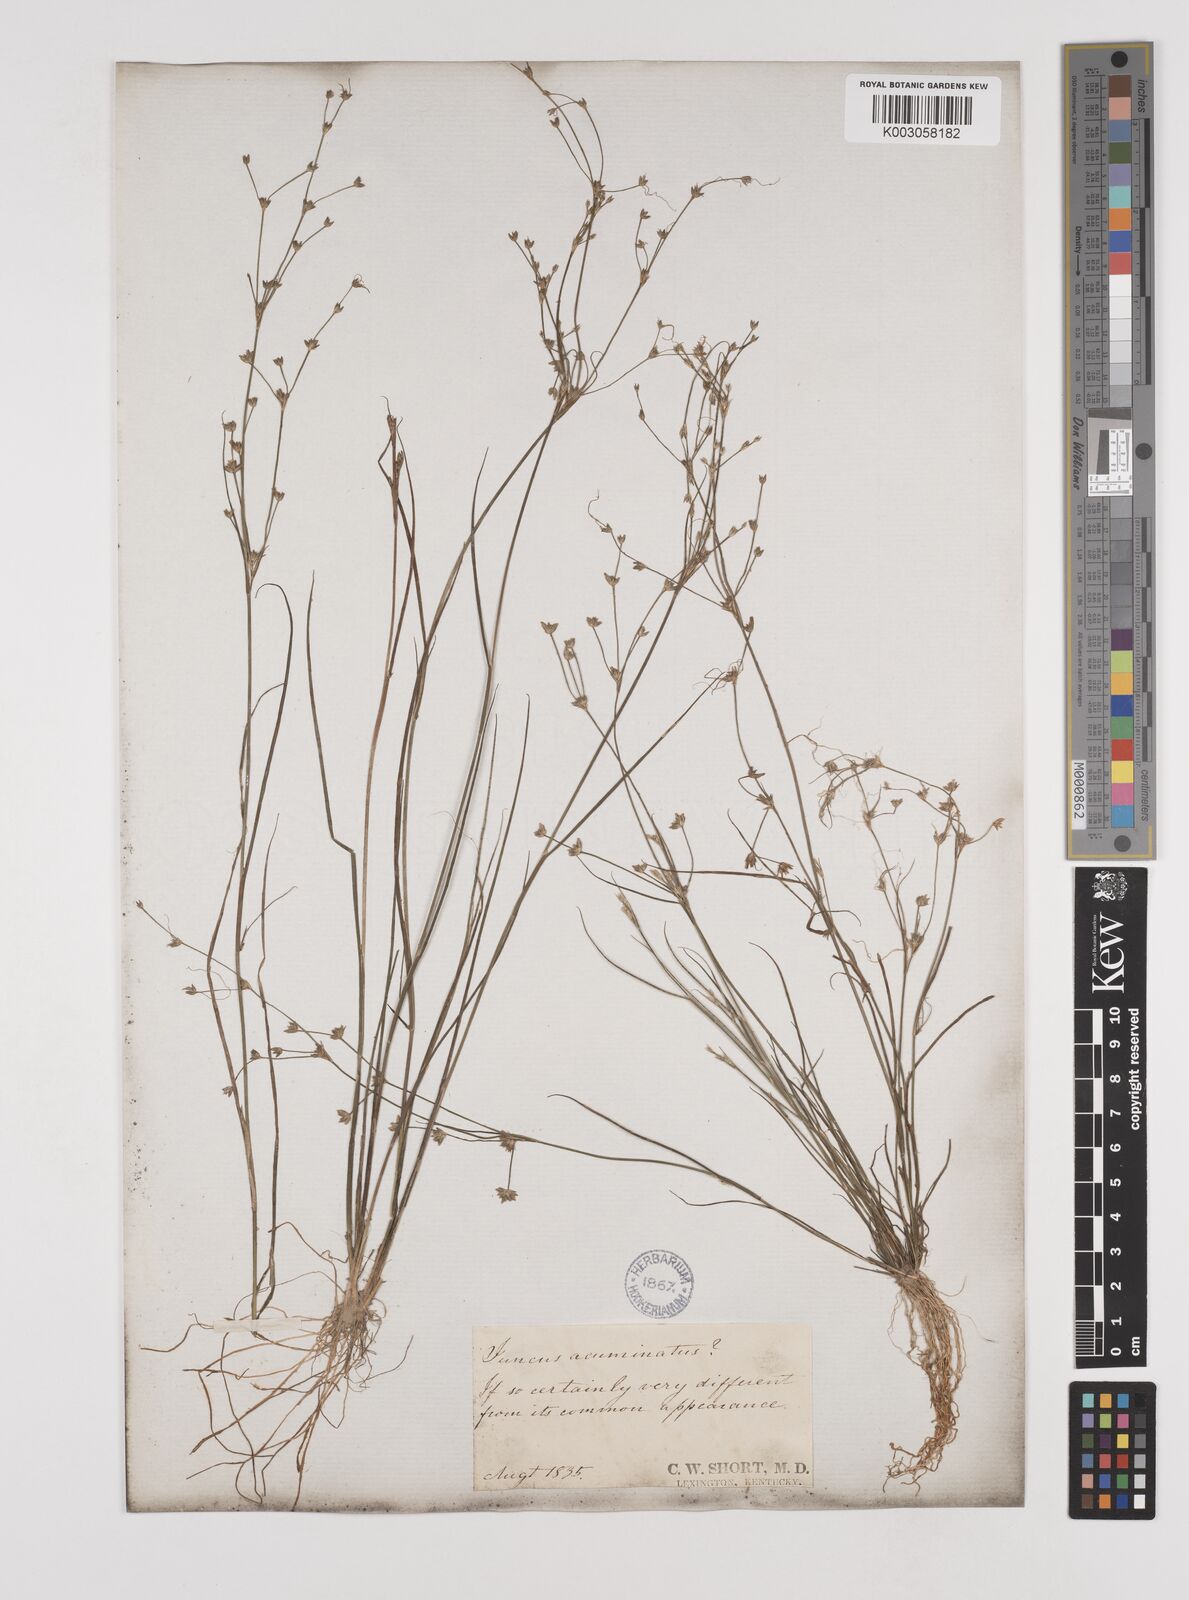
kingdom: Plantae
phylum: Tracheophyta
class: Liliopsida
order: Poales
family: Juncaceae
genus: Juncus
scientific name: Juncus
